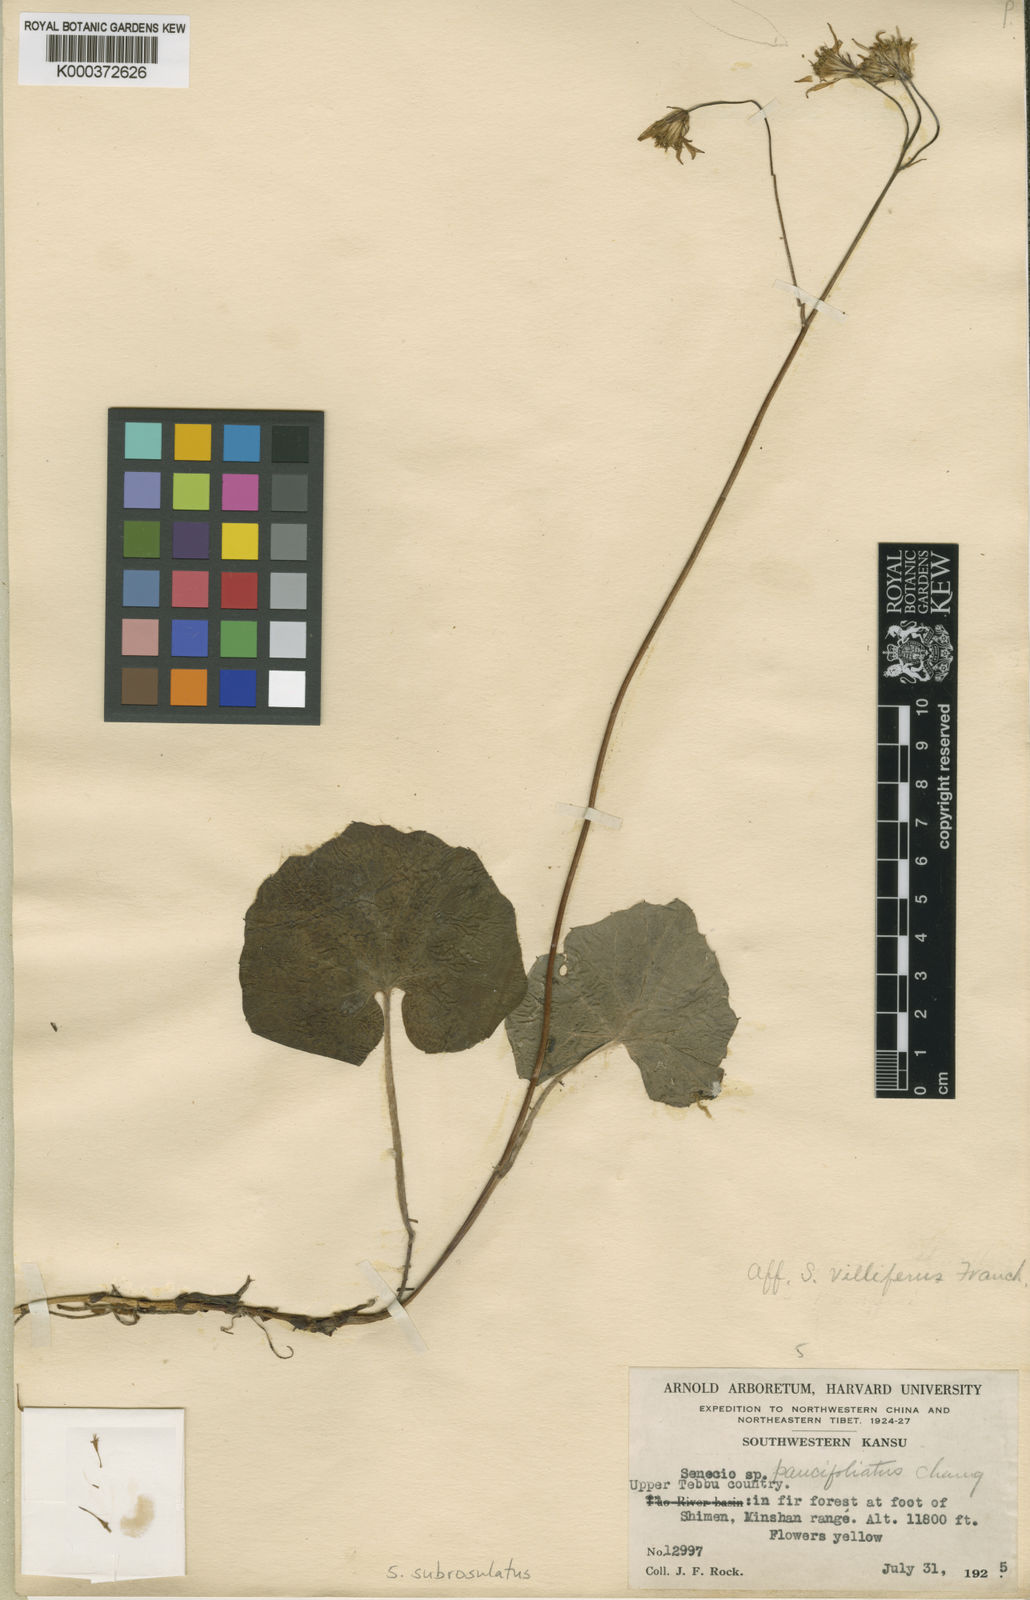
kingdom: Plantae
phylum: Tracheophyta
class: Magnoliopsida
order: Asterales
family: Asteraceae
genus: Sinosenecio
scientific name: Sinosenecio subrosulatus
